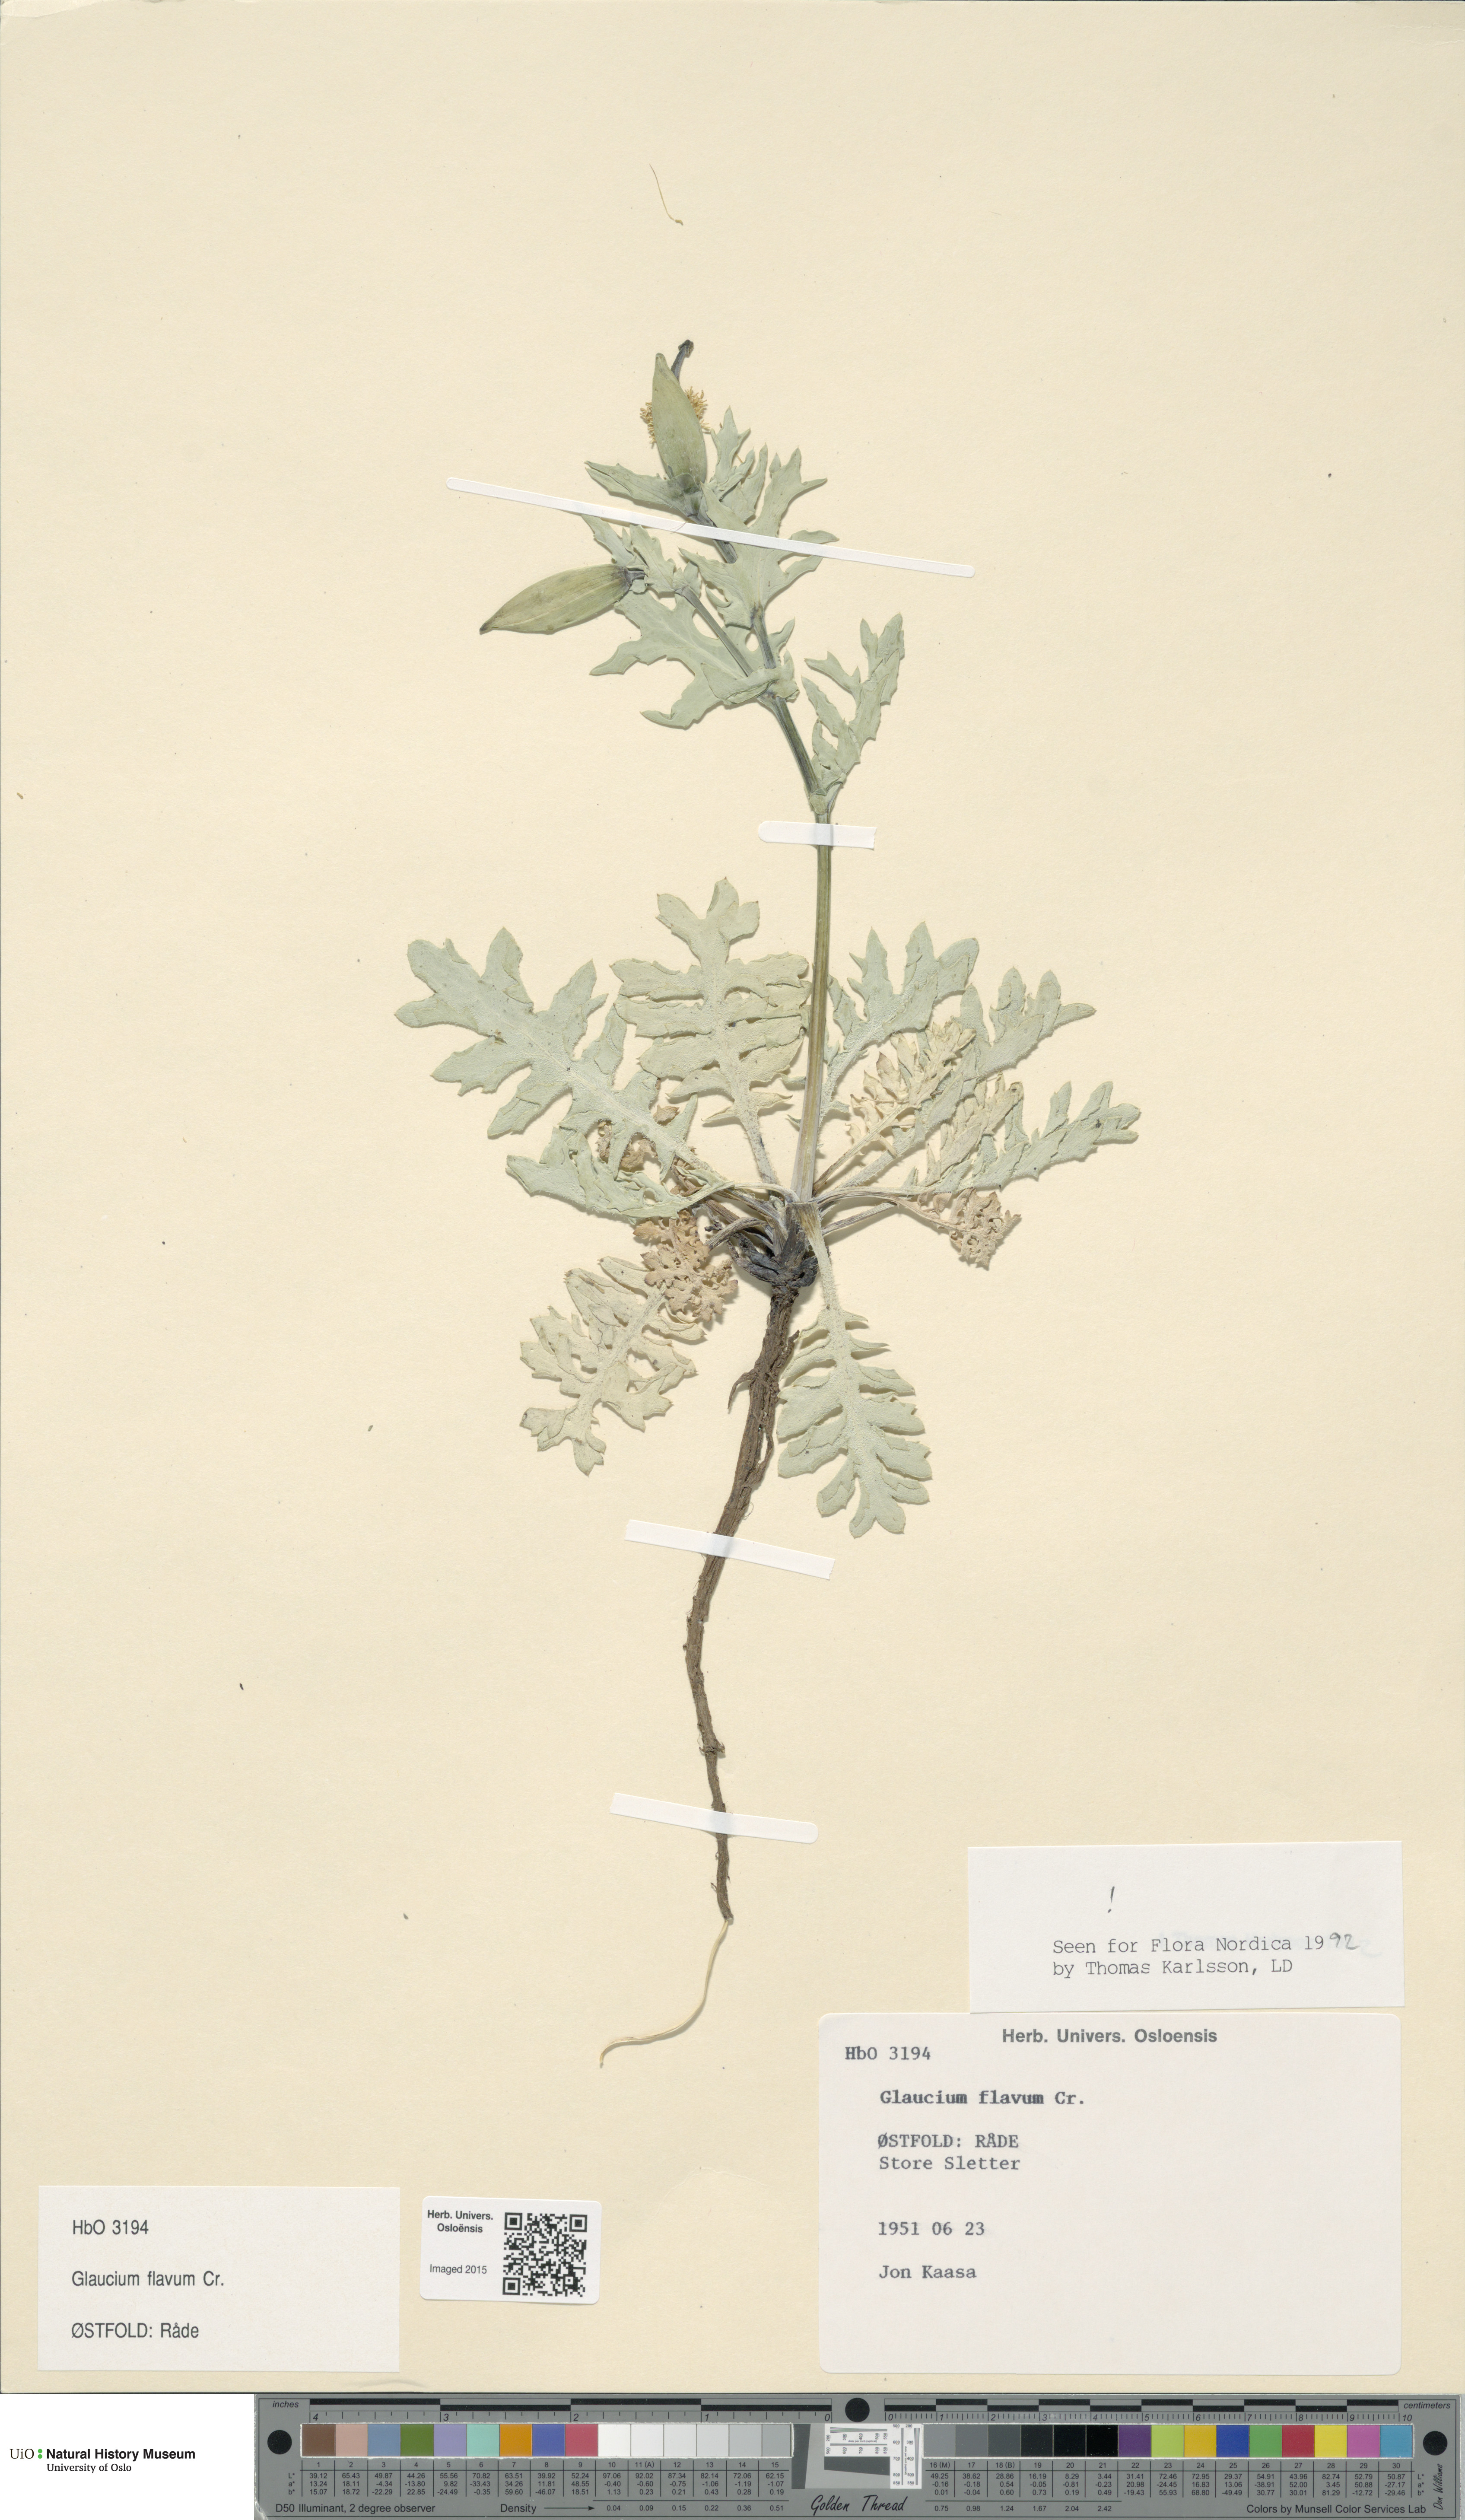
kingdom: Plantae
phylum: Tracheophyta
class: Magnoliopsida
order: Ranunculales
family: Papaveraceae
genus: Glaucium
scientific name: Glaucium flavum
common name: Yellow horned-poppy
